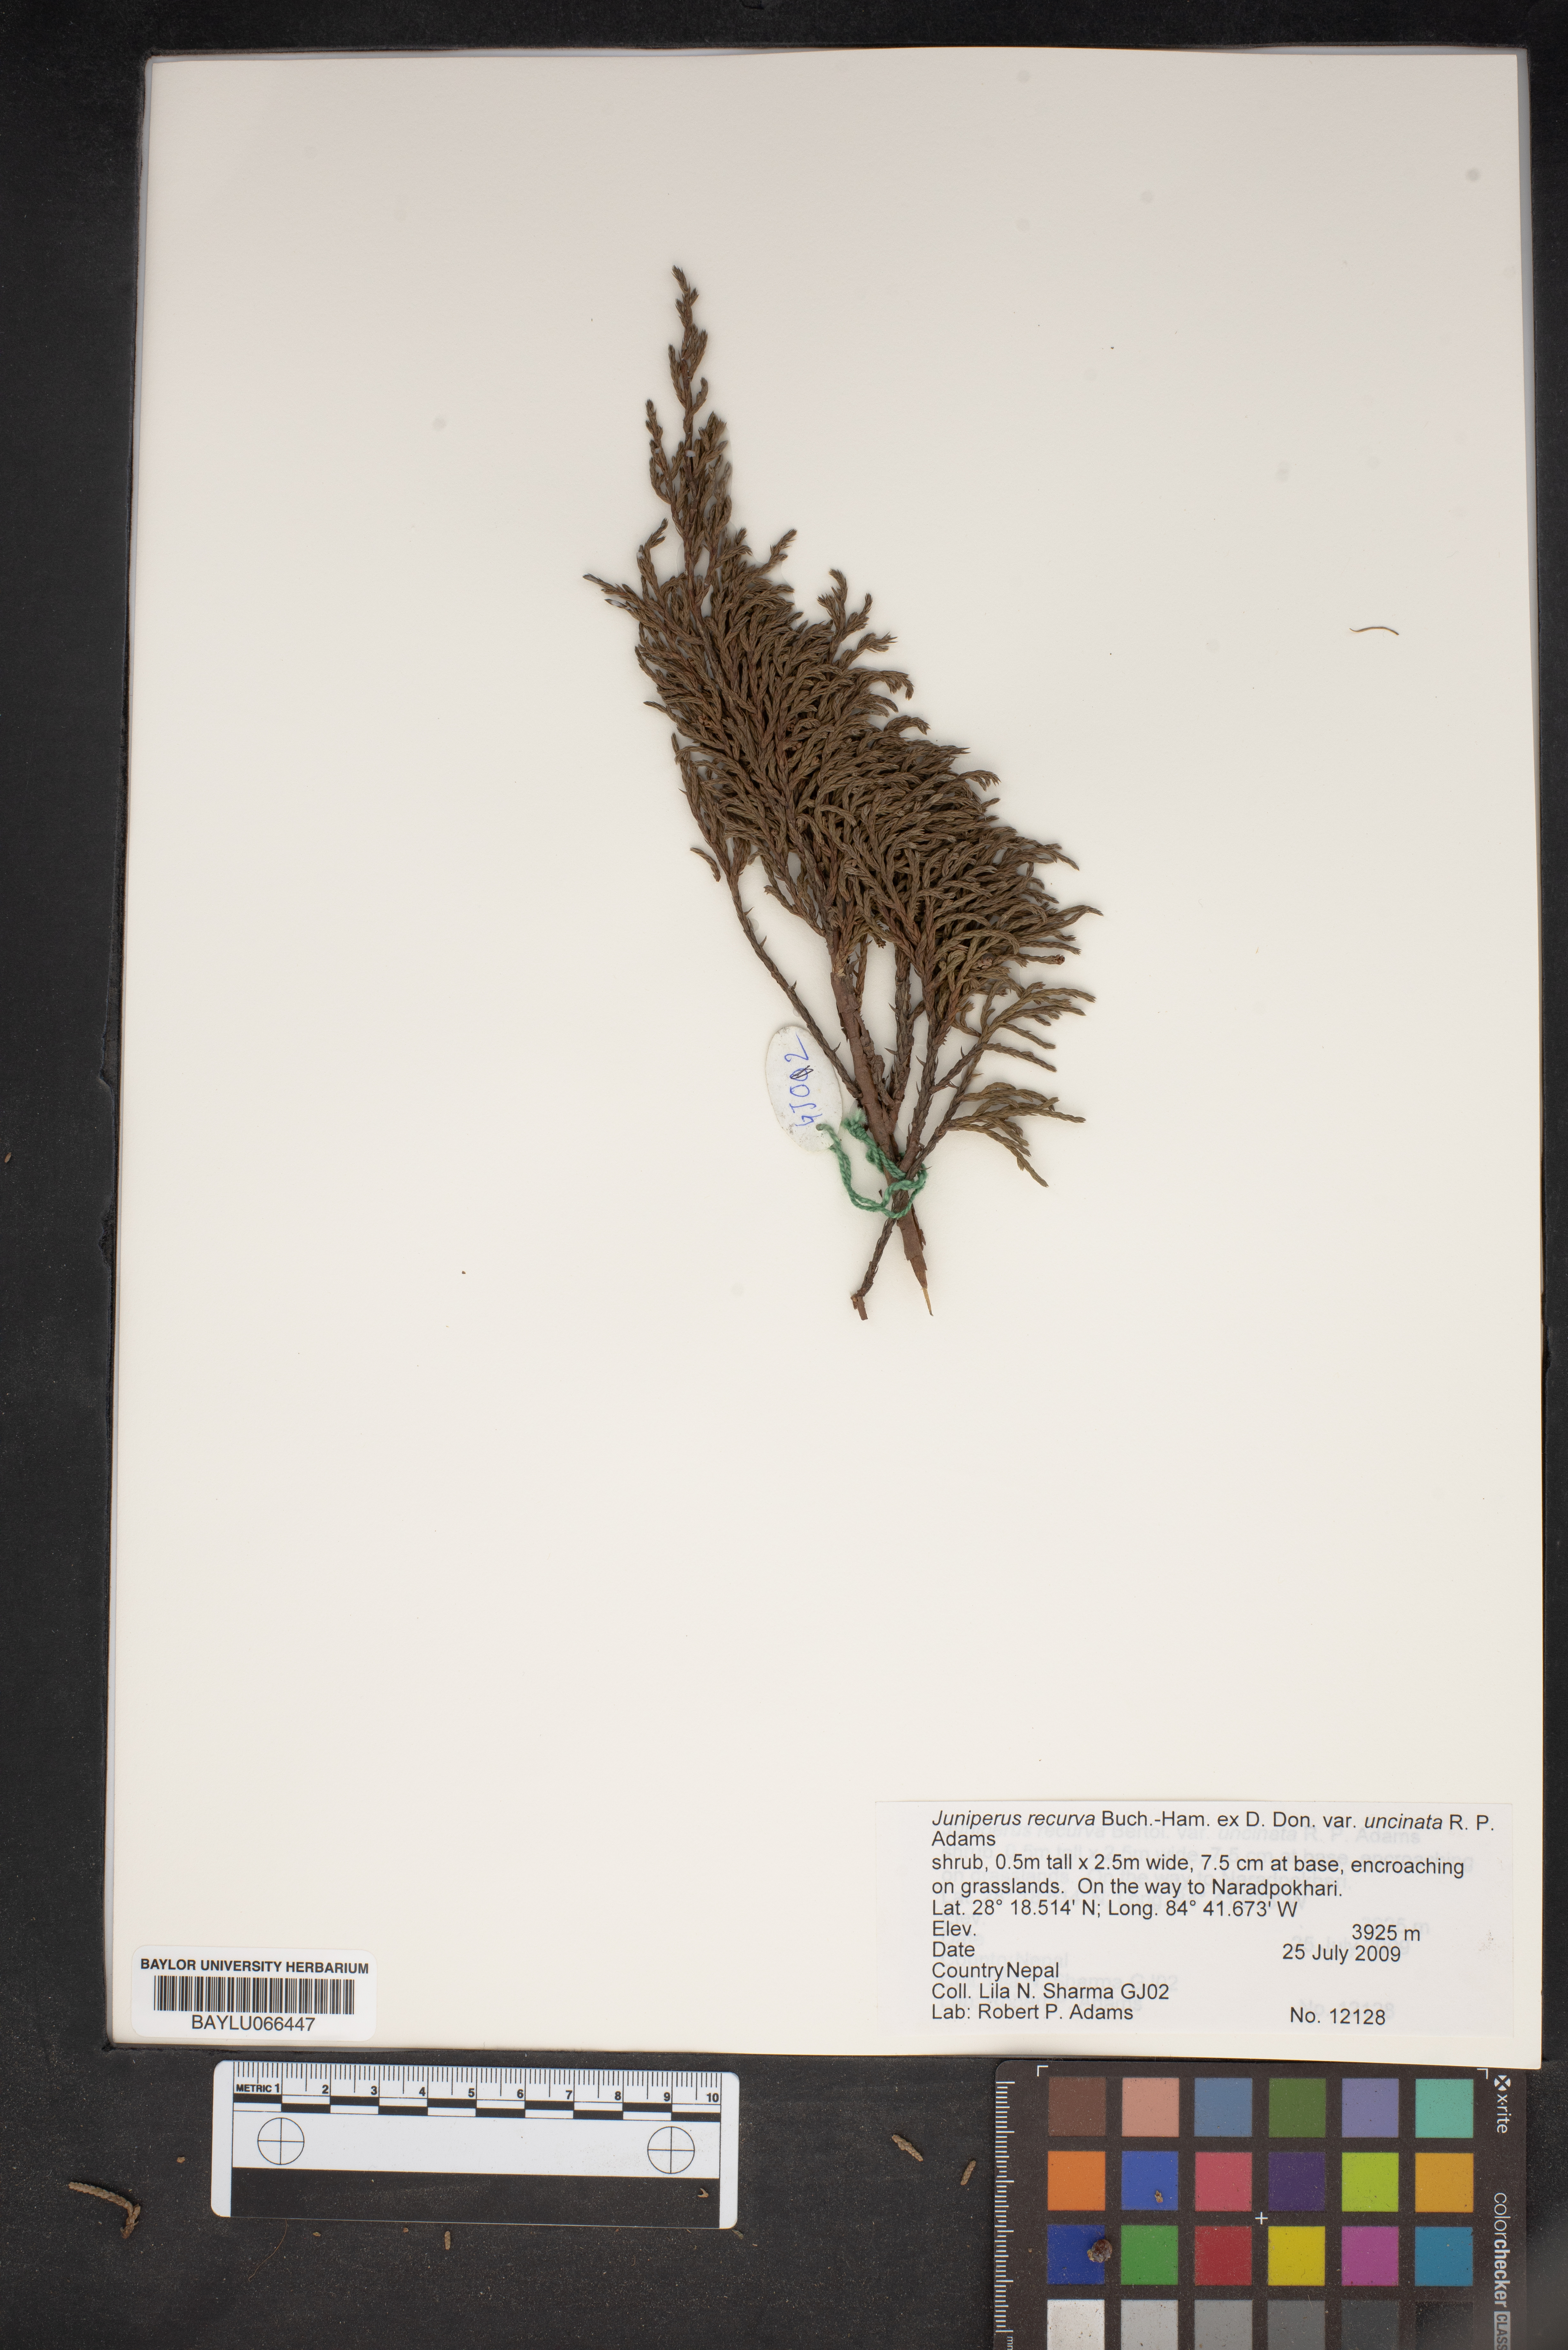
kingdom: Plantae
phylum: Tracheophyta
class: Pinopsida
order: Pinales
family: Cupressaceae
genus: Juniperus
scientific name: Juniperus recurva
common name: Drooping juniper
